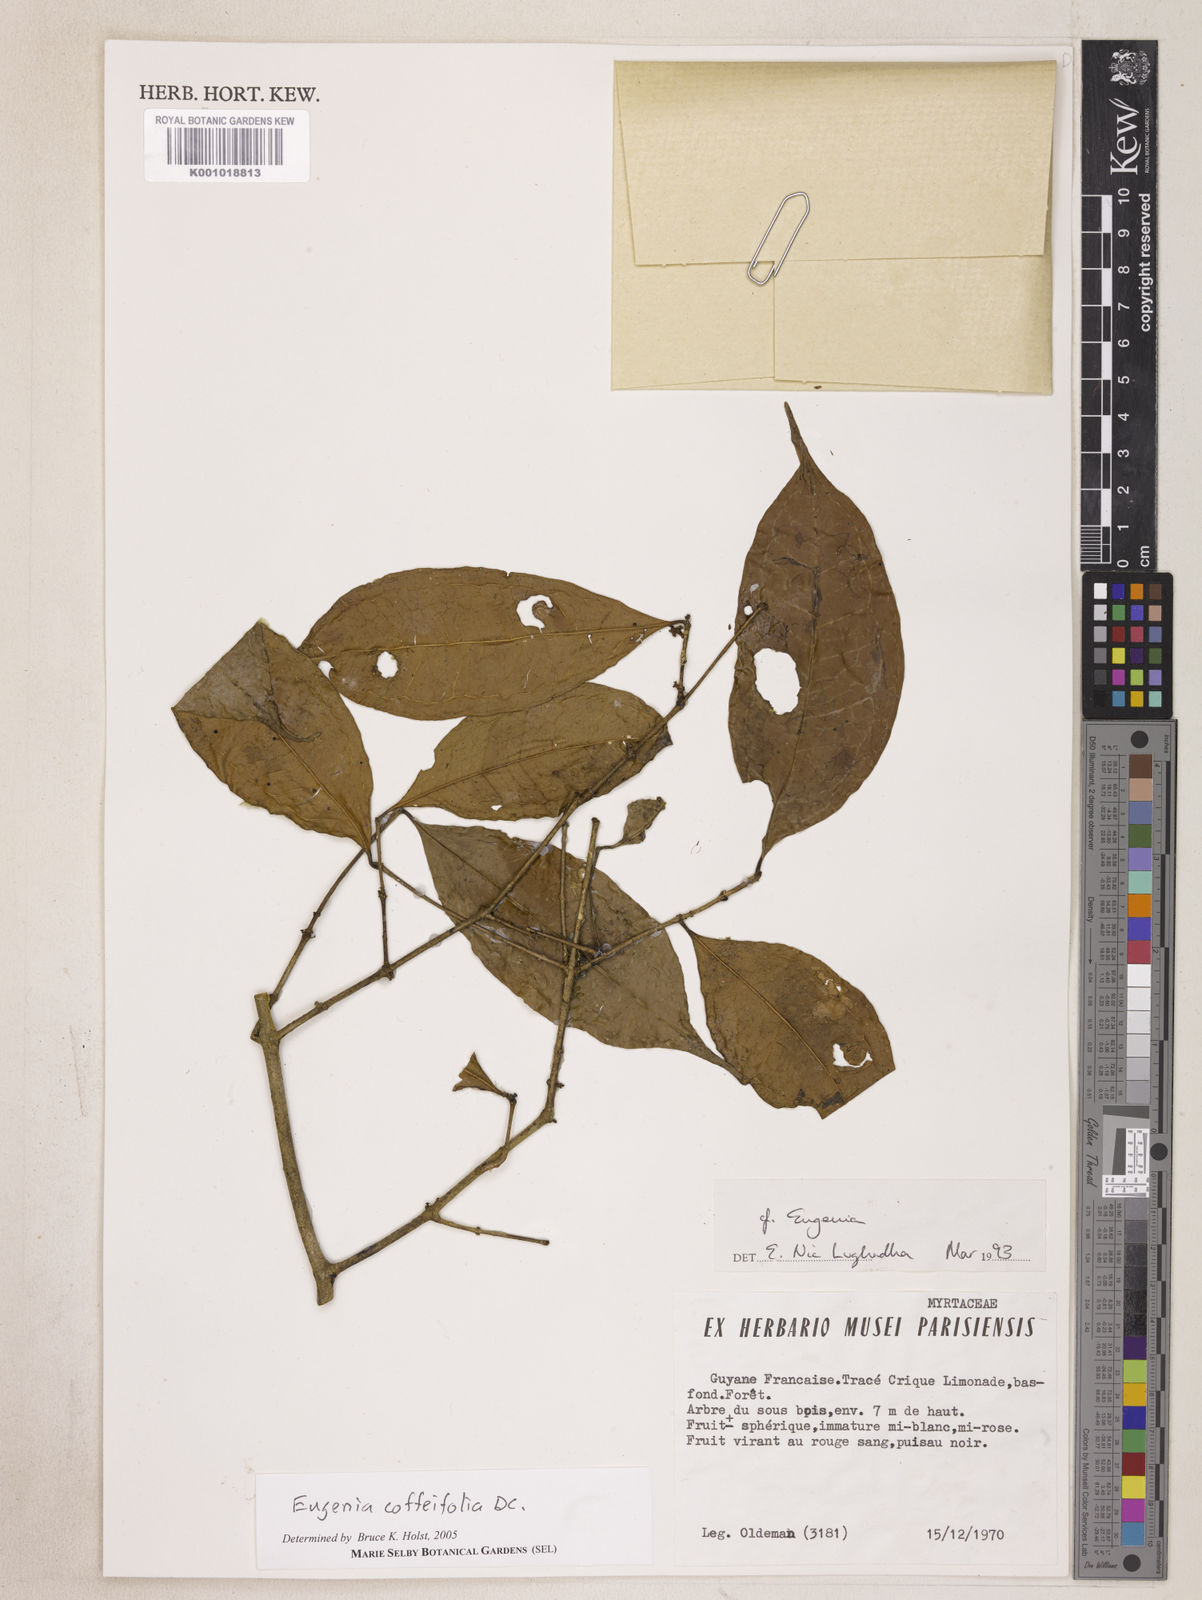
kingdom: Plantae
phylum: Tracheophyta
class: Magnoliopsida
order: Myrtales
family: Myrtaceae
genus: Eugenia
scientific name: Eugenia coffeifolia
